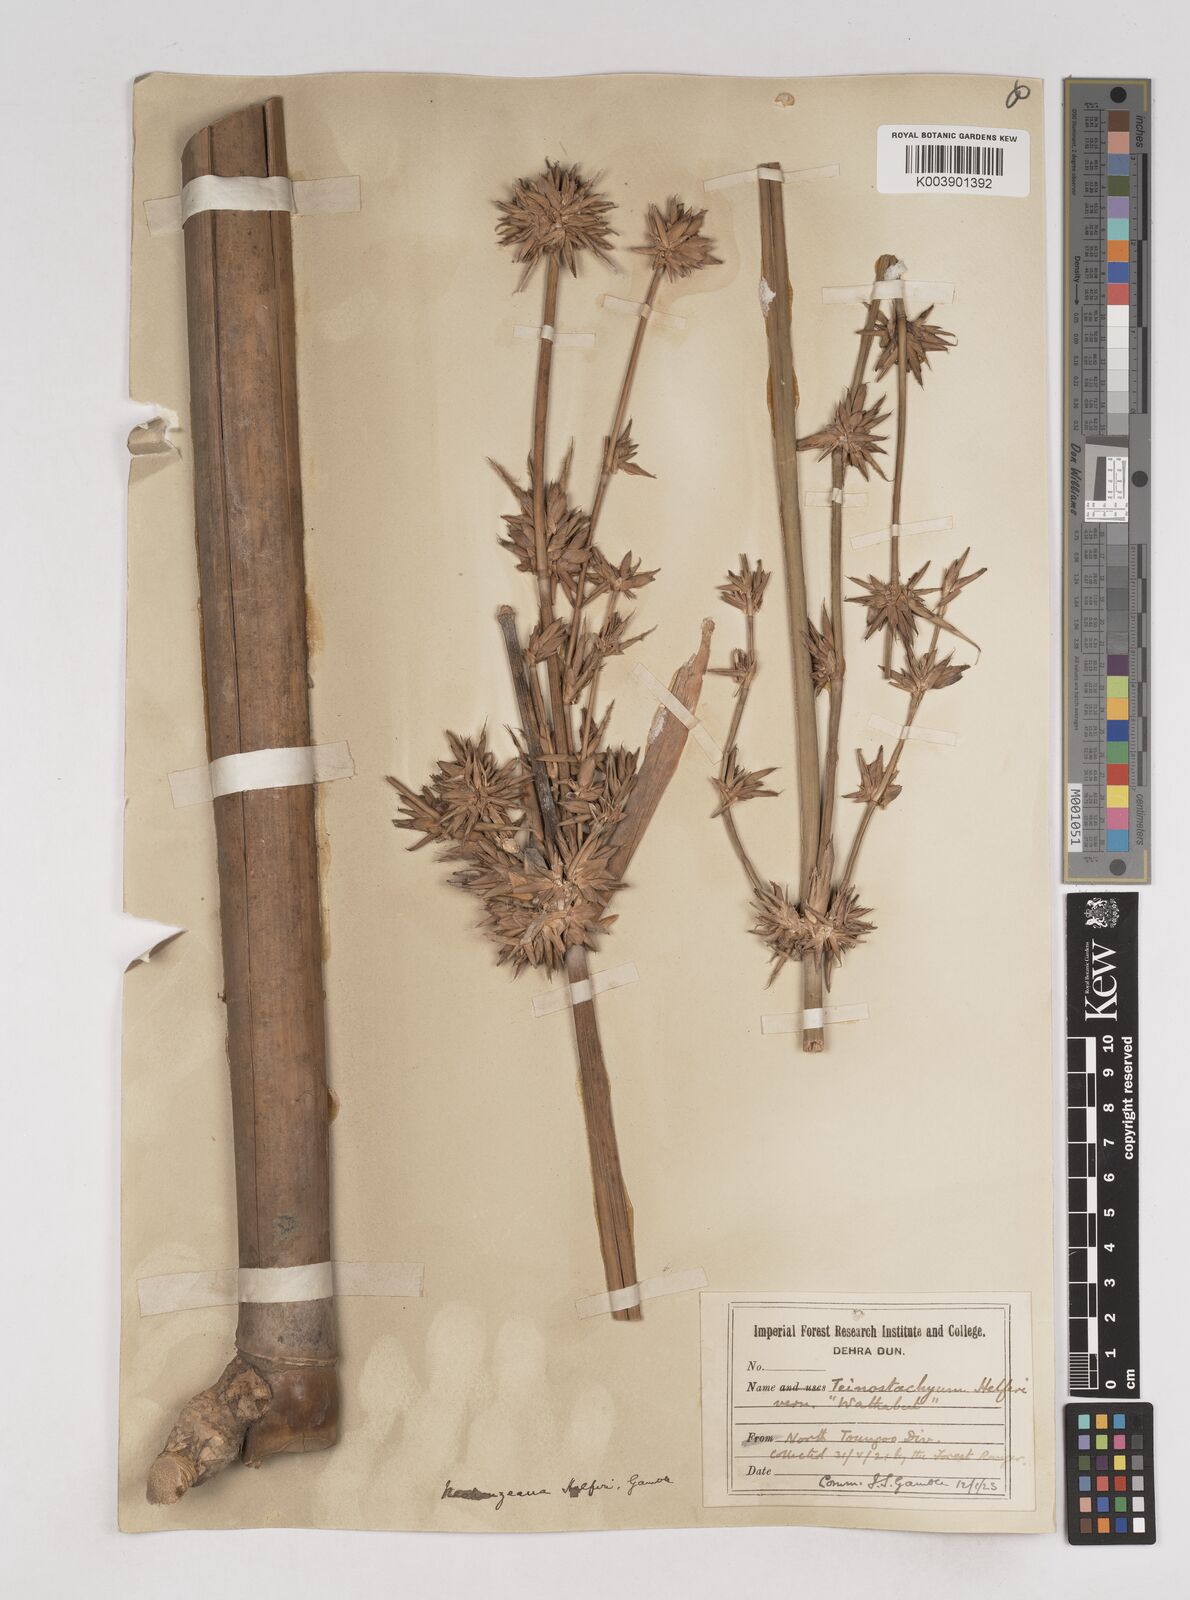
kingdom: Plantae
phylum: Tracheophyta
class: Liliopsida
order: Poales
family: Poaceae
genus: Schizostachyum
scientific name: Schizostachyum helferi
